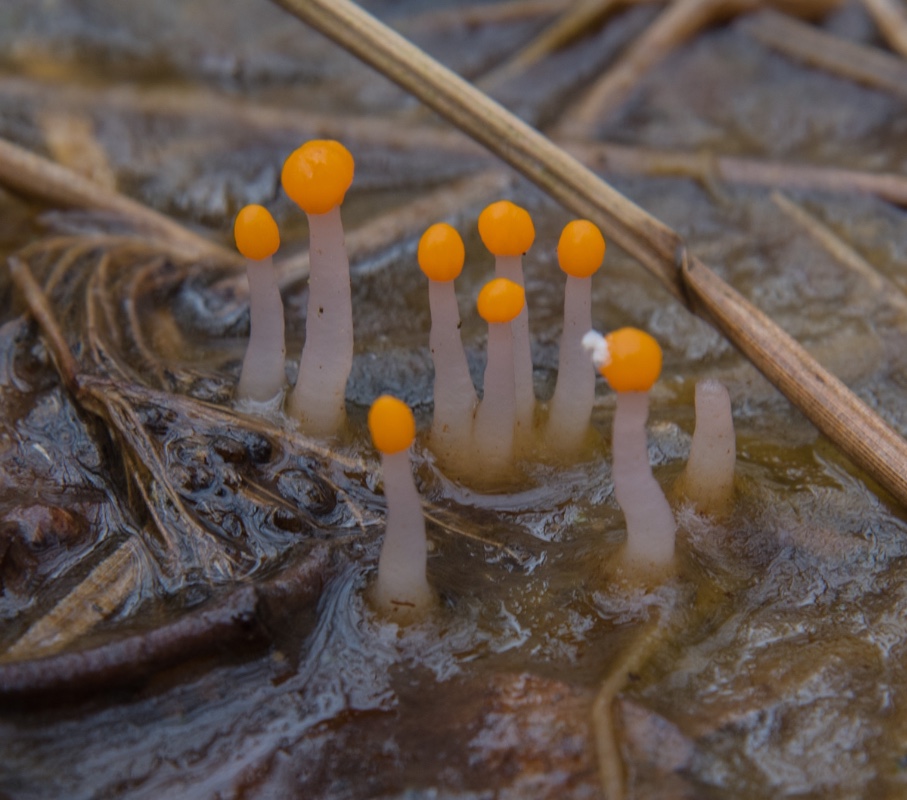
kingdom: Fungi
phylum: Ascomycota
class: Leotiomycetes
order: Helotiales
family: Cenangiaceae
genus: Mitrula
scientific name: Mitrula paludosa
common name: gul nøkketunge
